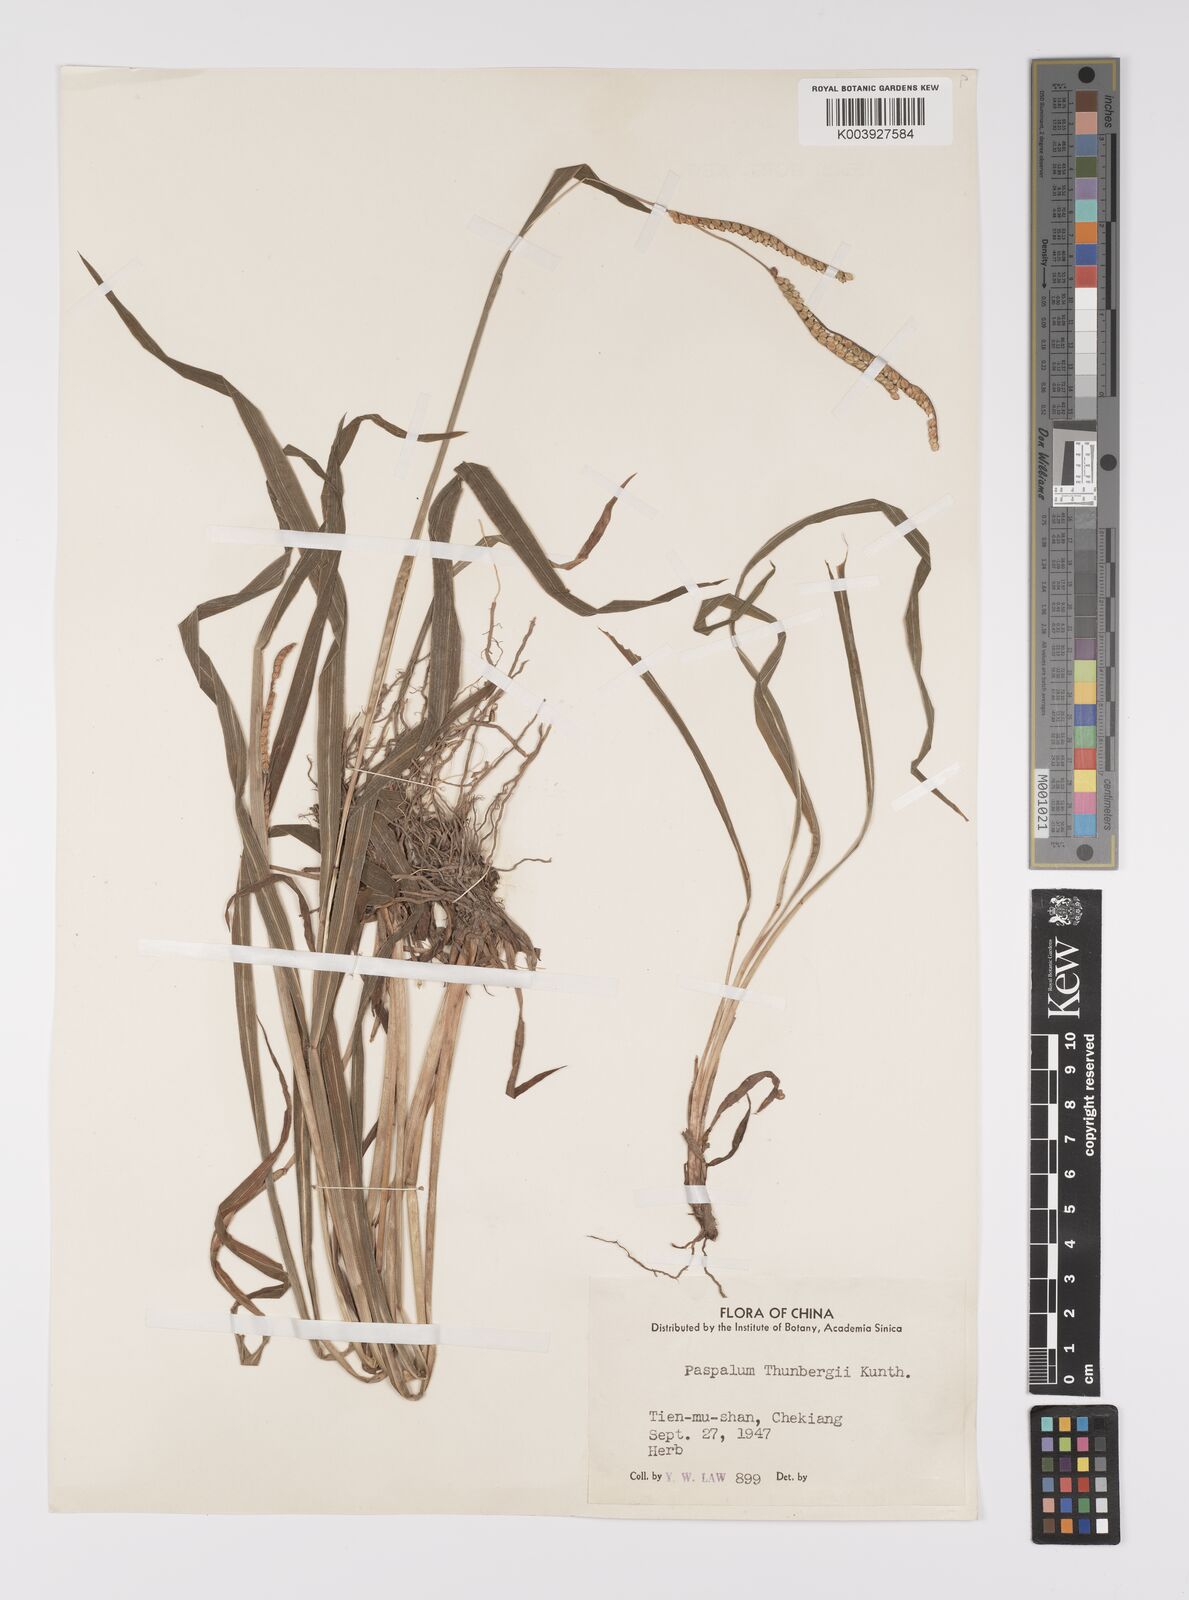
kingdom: Plantae
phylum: Tracheophyta
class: Liliopsida
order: Poales
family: Poaceae
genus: Paspalum
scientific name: Paspalum thunbergii
